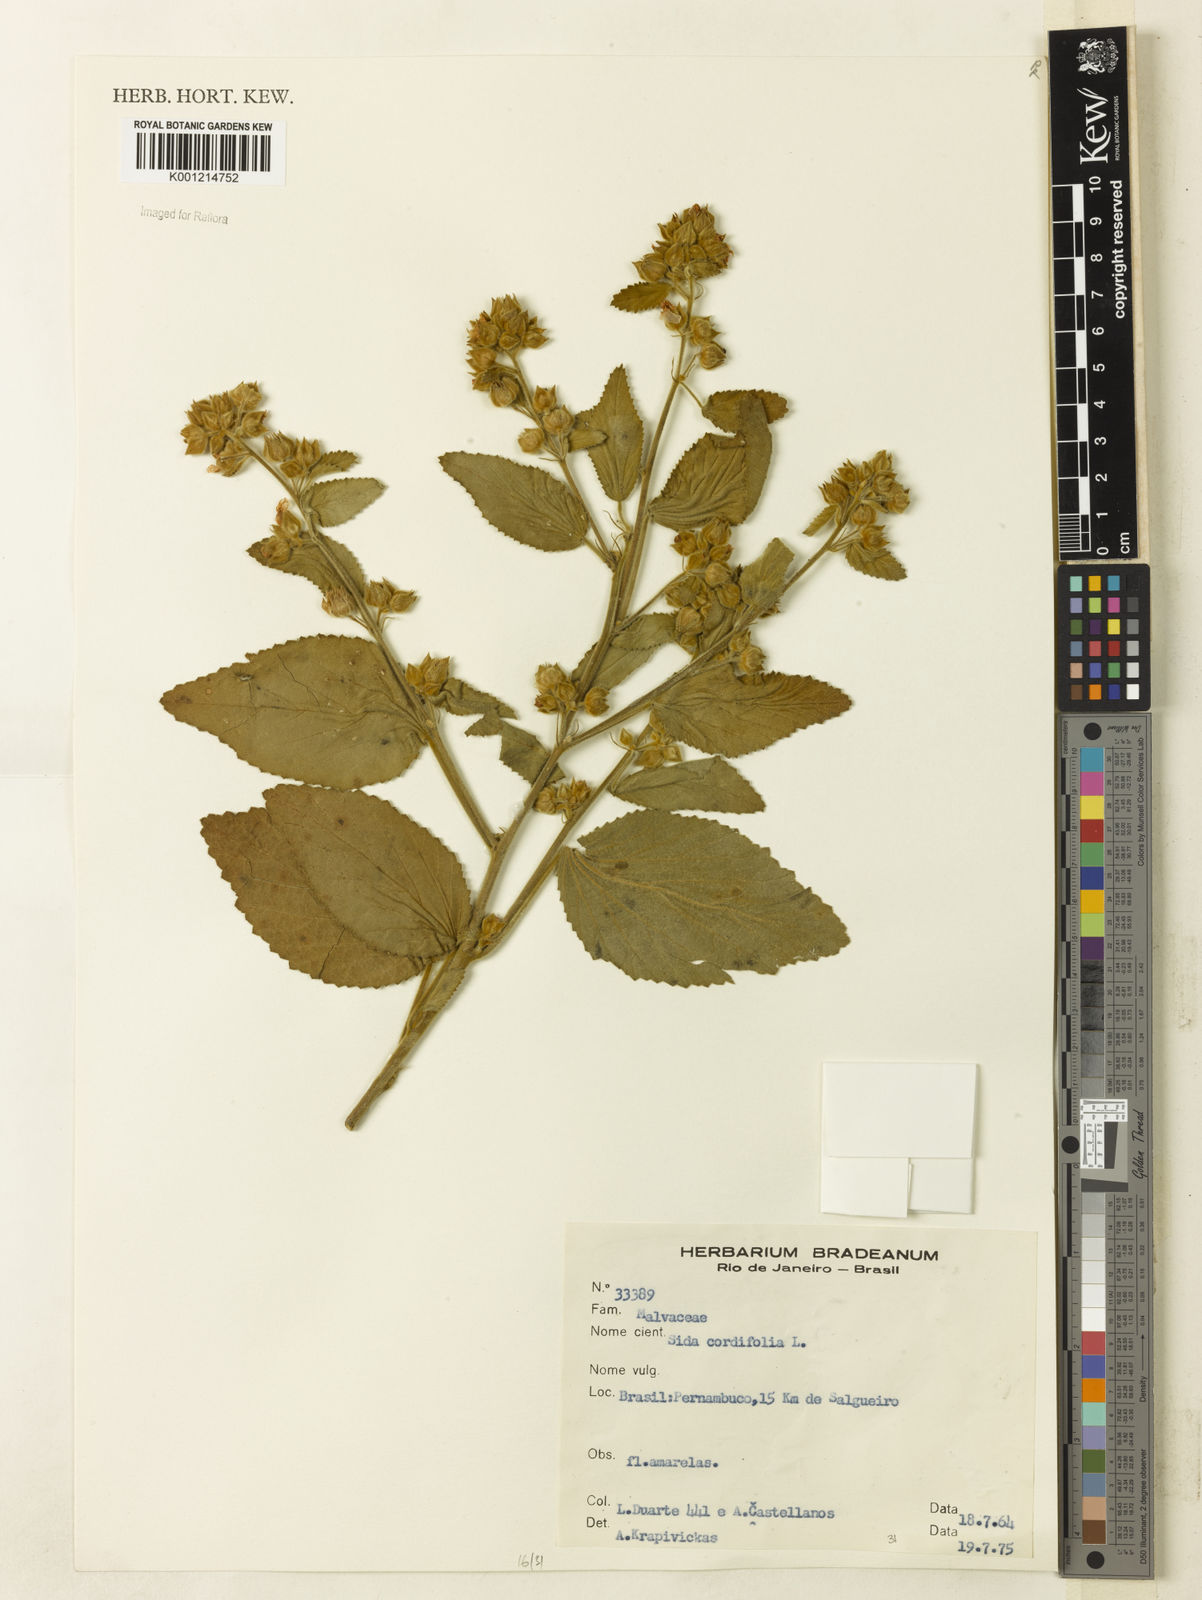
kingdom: Plantae
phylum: Tracheophyta
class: Magnoliopsida
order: Malvales
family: Malvaceae
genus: Sida
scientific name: Sida cordifolia
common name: Ilima
